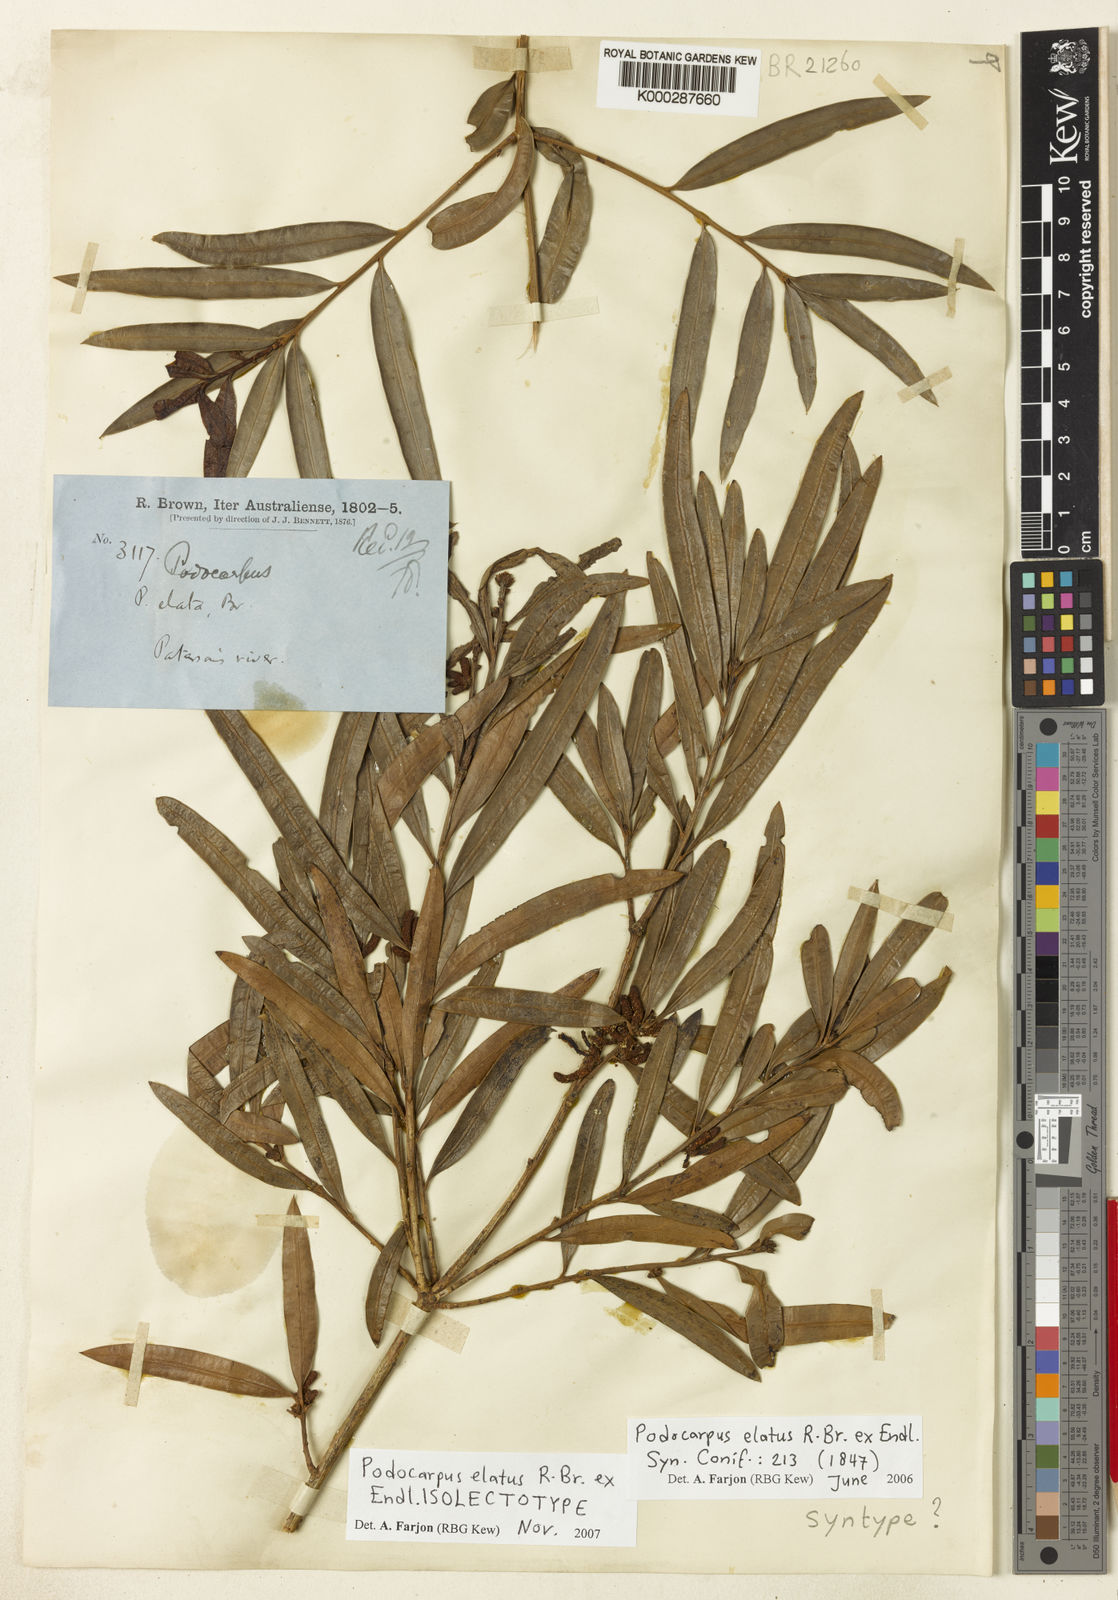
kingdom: Plantae
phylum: Tracheophyta
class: Pinopsida
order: Pinales
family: Podocarpaceae
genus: Podocarpus
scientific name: Podocarpus elatus
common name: Plum pine
